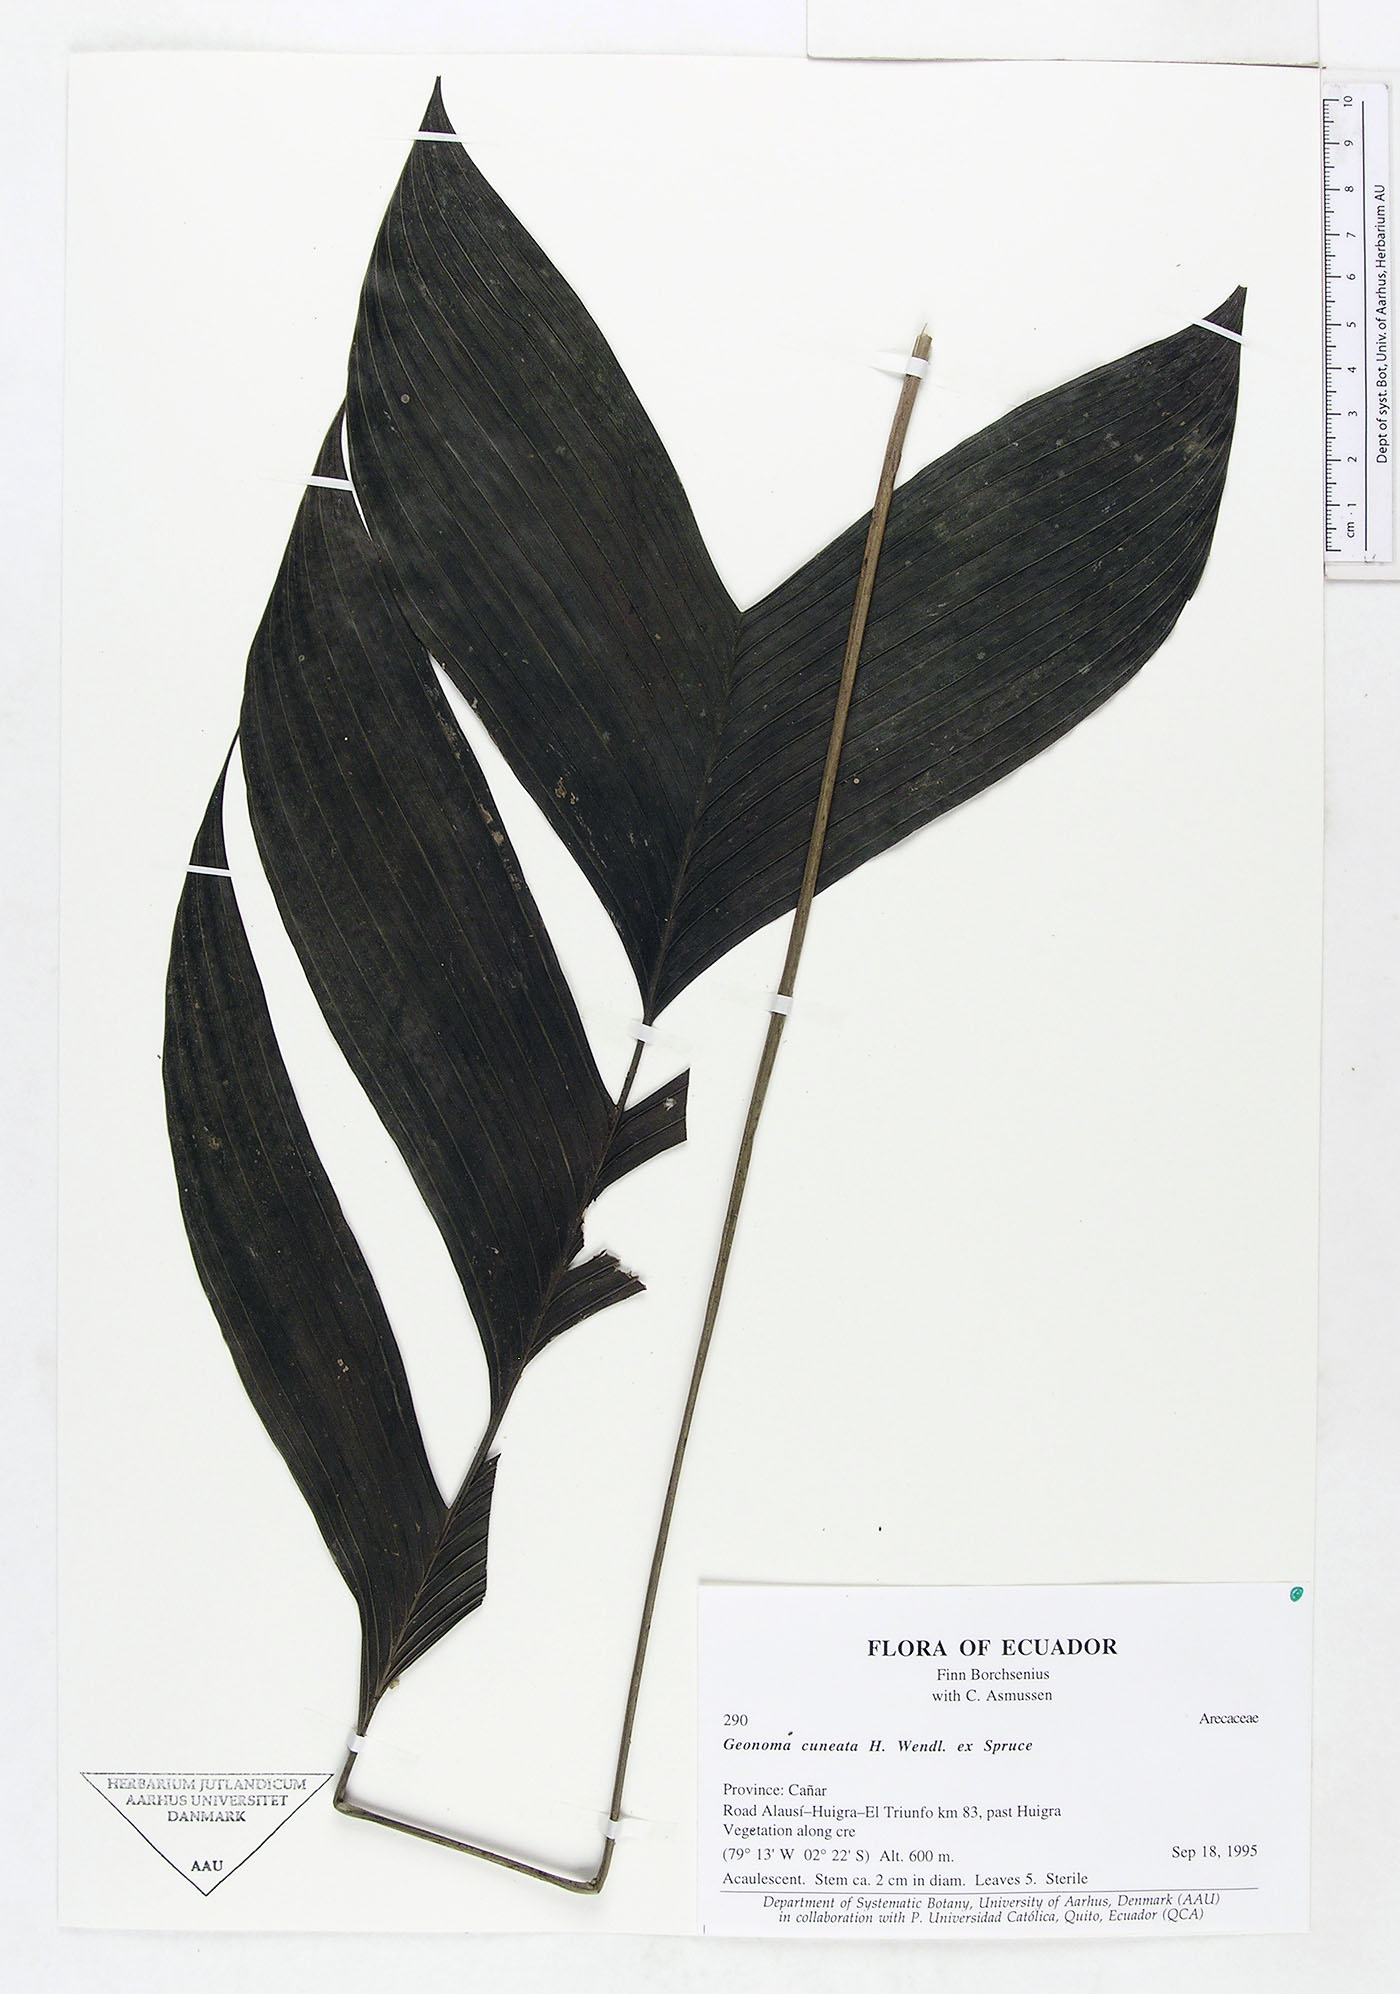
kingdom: Plantae
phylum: Tracheophyta
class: Liliopsida
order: Arecales
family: Arecaceae
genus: Geonoma
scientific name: Geonoma cuneata
